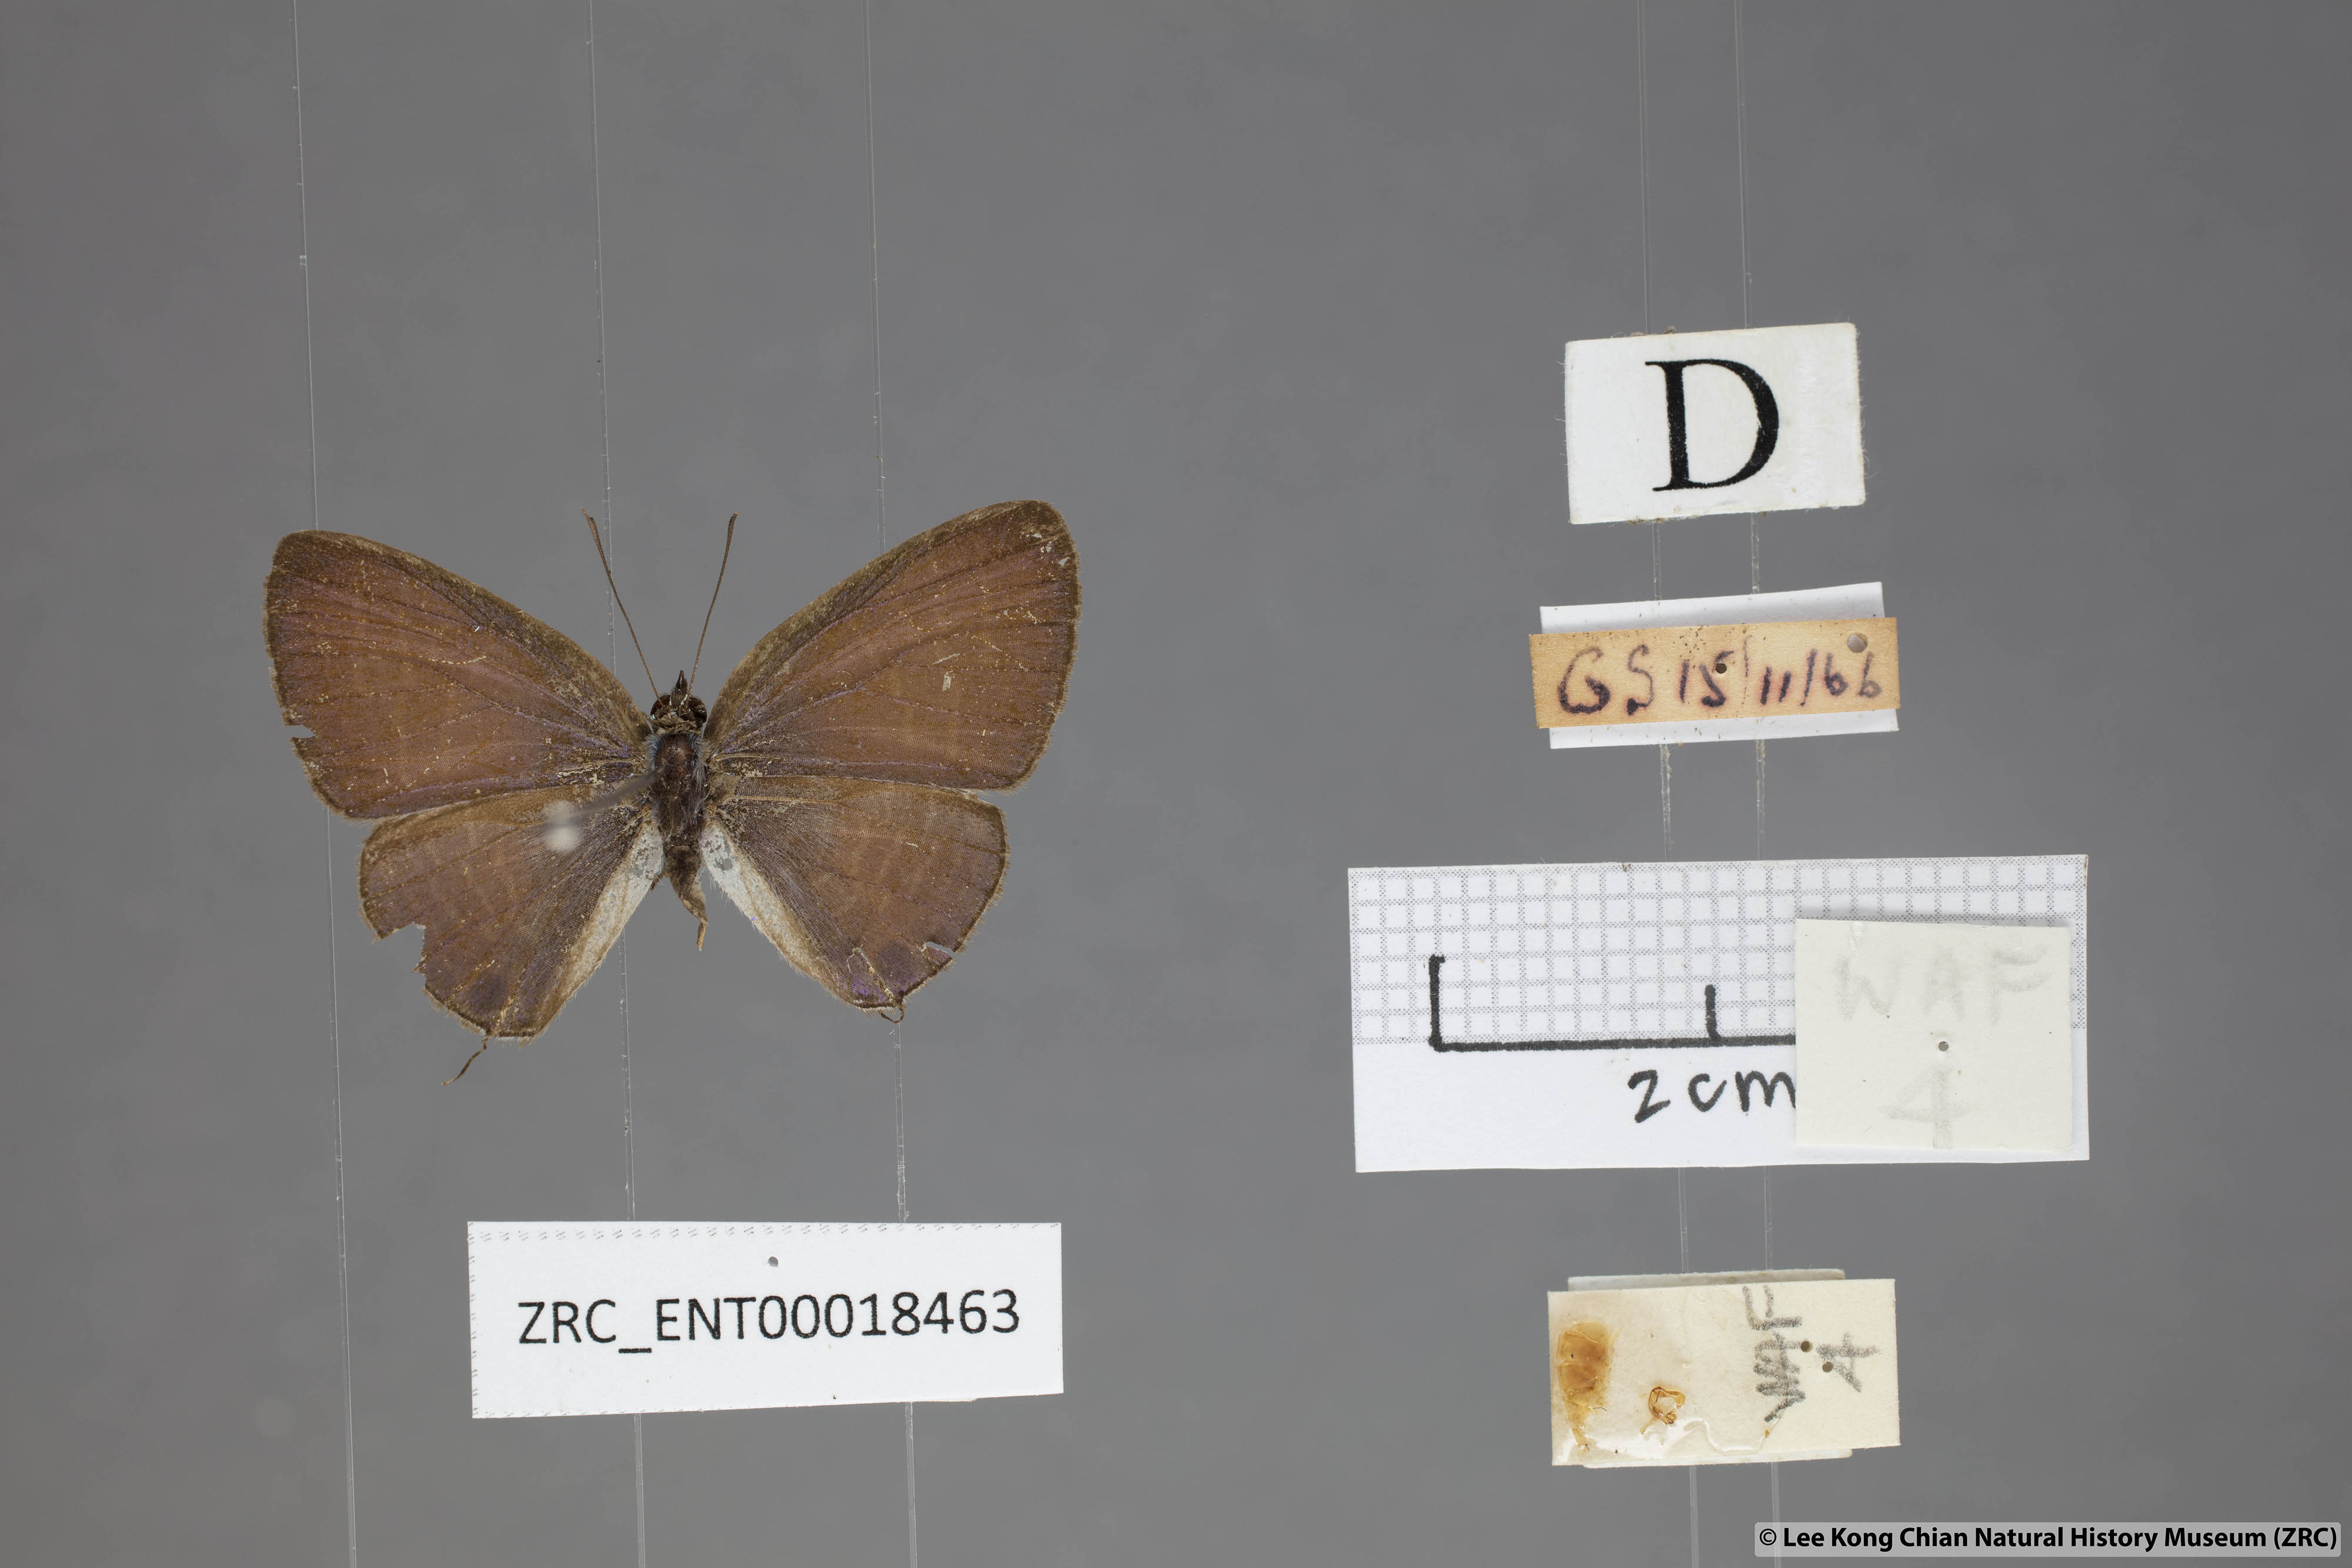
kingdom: Animalia
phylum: Arthropoda
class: Insecta
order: Lepidoptera
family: Lycaenidae
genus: Nacaduba
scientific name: Nacaduba solta
